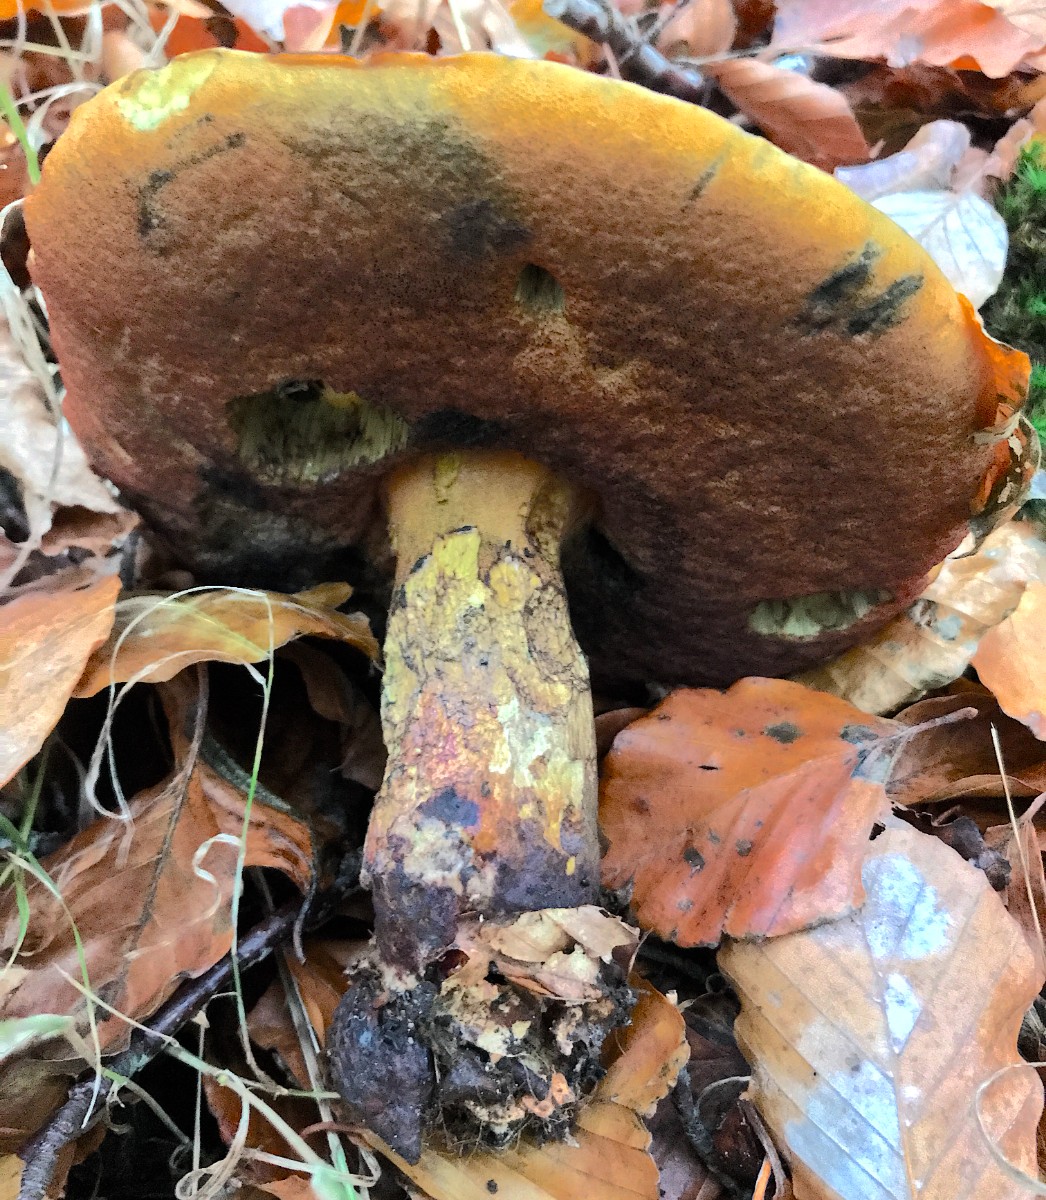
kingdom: Fungi
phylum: Basidiomycota
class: Agaricomycetes
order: Boletales
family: Boletaceae
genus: Neoboletus
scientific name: Neoboletus erythropus
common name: punktstokket indigorørhat
